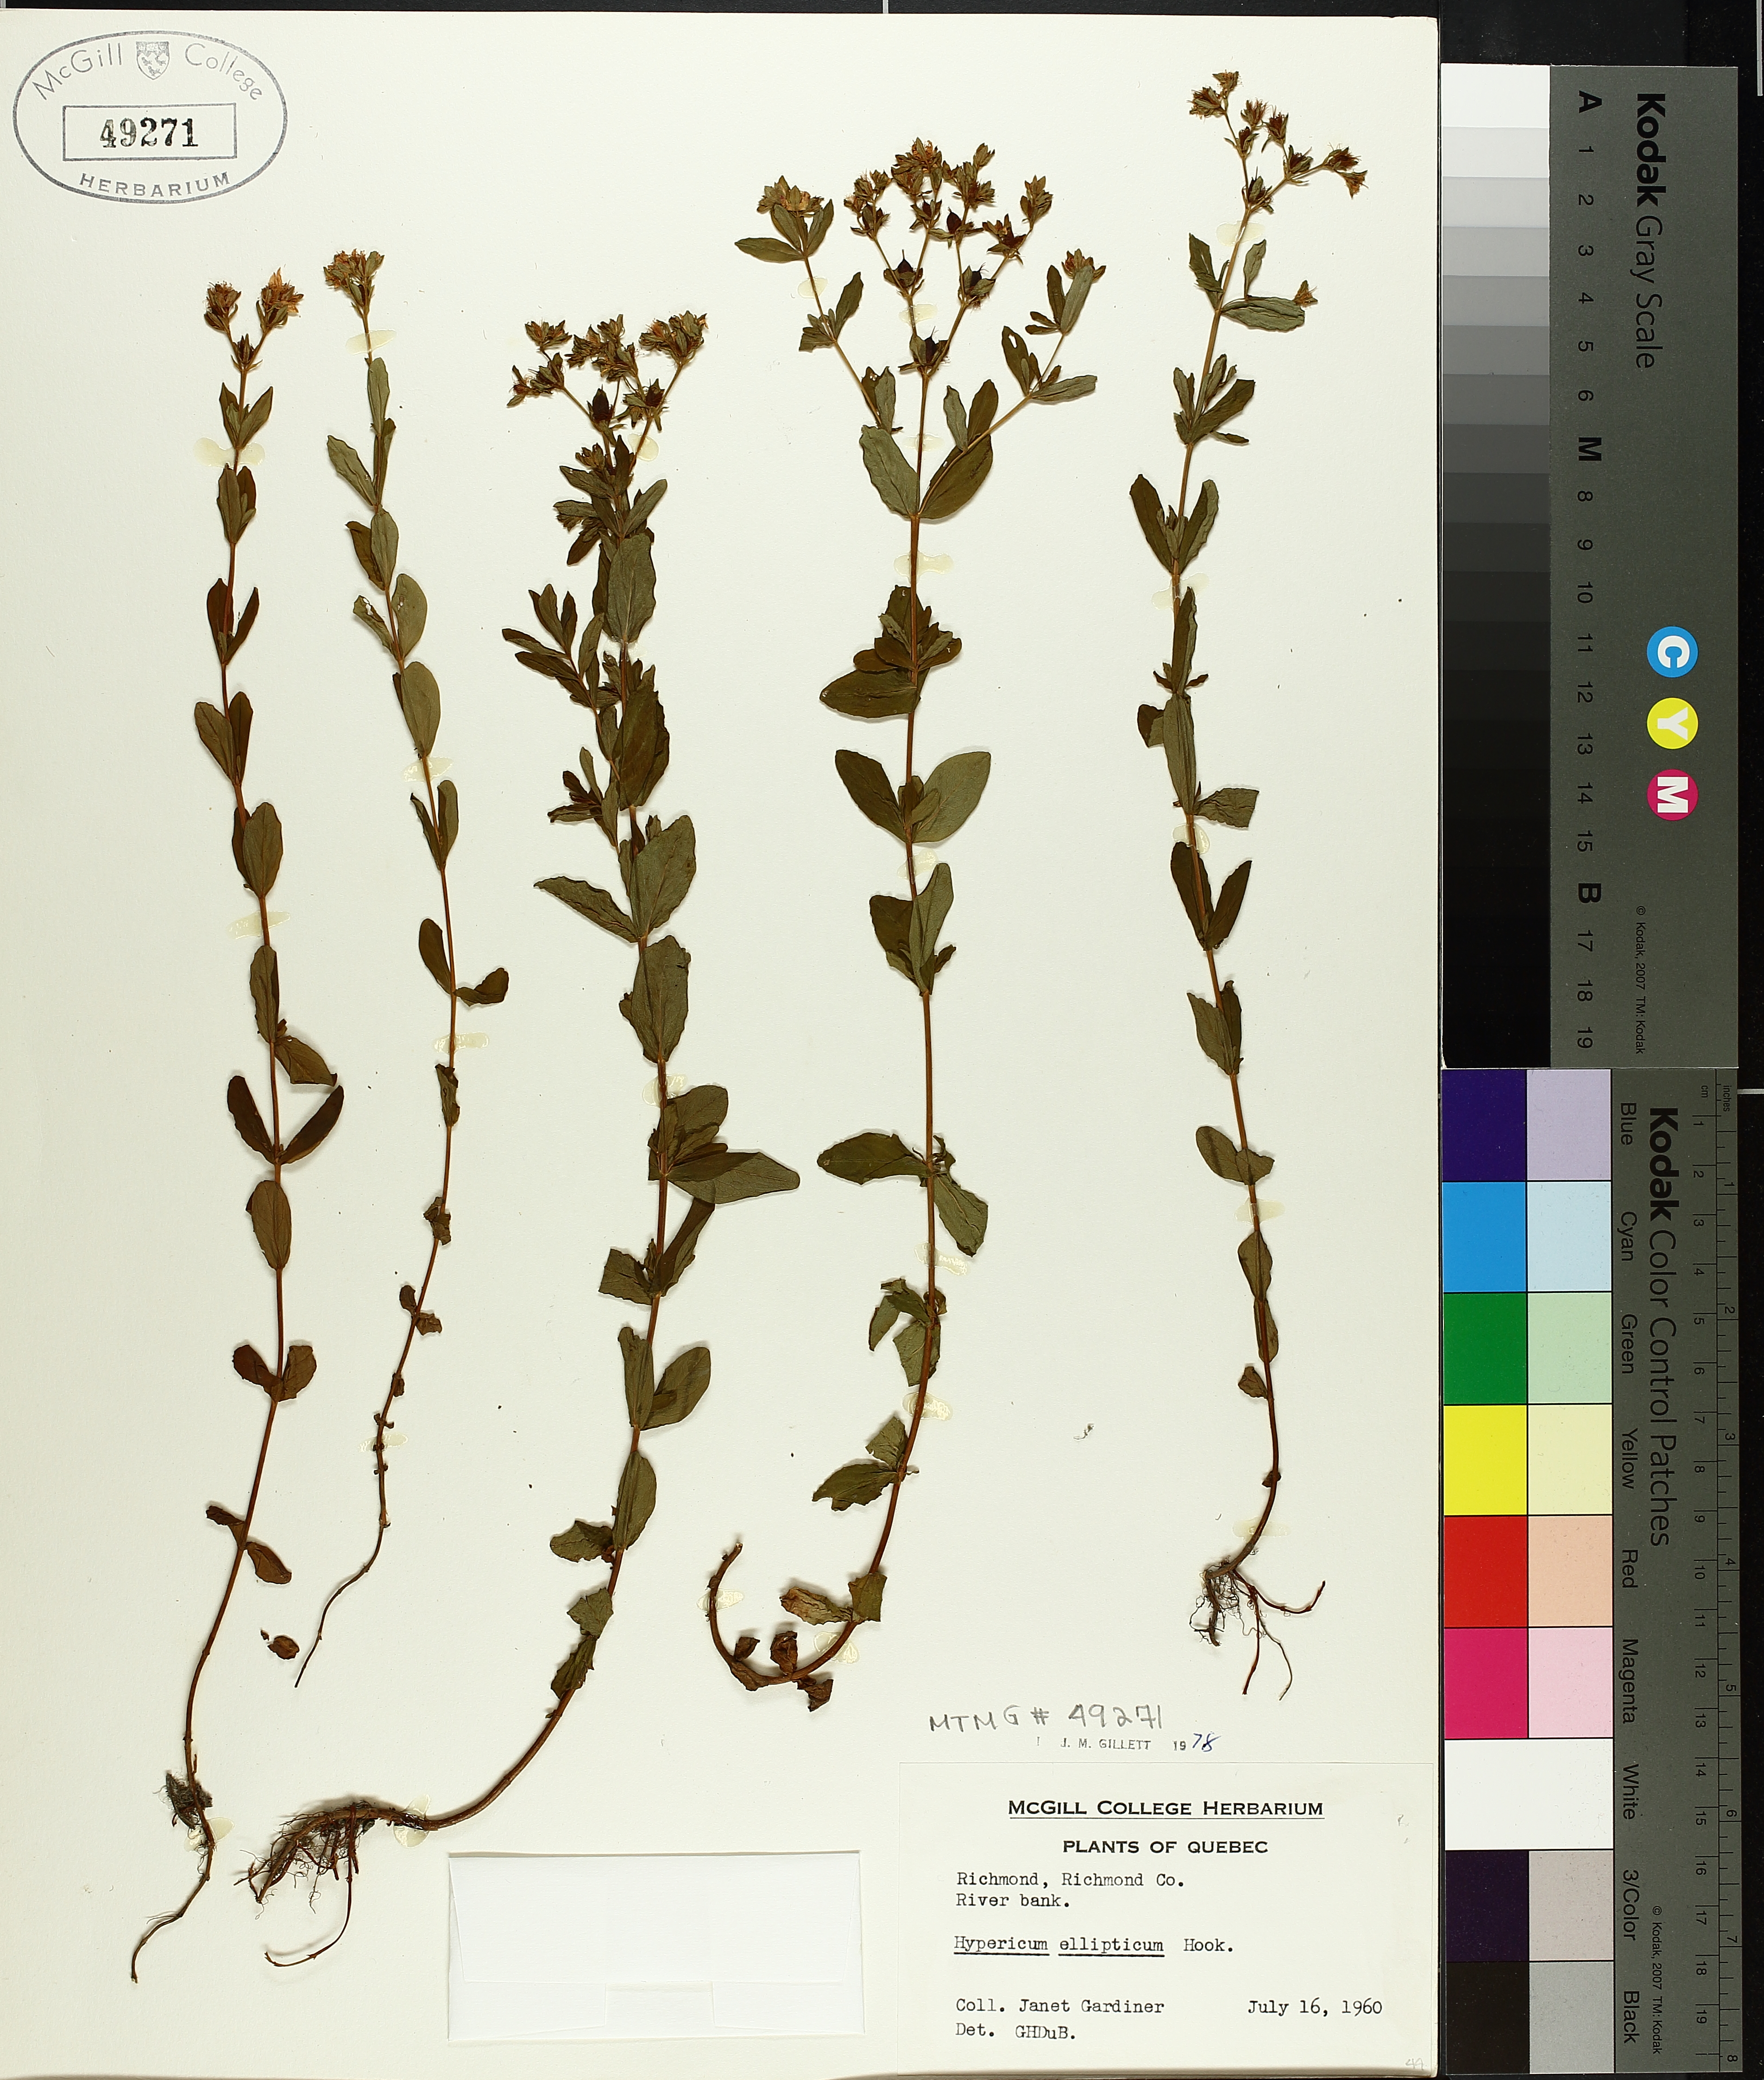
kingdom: Plantae
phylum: Tracheophyta
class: Magnoliopsida
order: Malpighiales
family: Hypericaceae
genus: Hypericum
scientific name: Hypericum ellipticum
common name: Elliptic st. john's-wort
